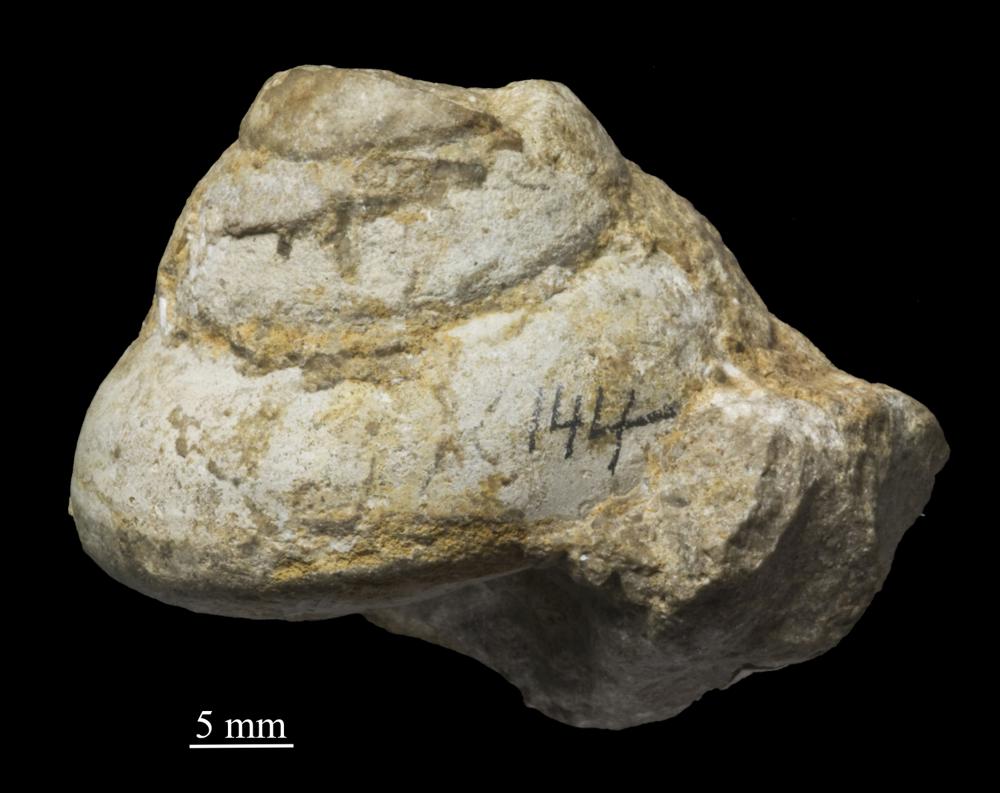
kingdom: Animalia
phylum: Mollusca
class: Gastropoda
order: Pleurotomariida
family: Gosseletinidae
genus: Deacheospira
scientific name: Deacheospira Pleurotomaria inflata
